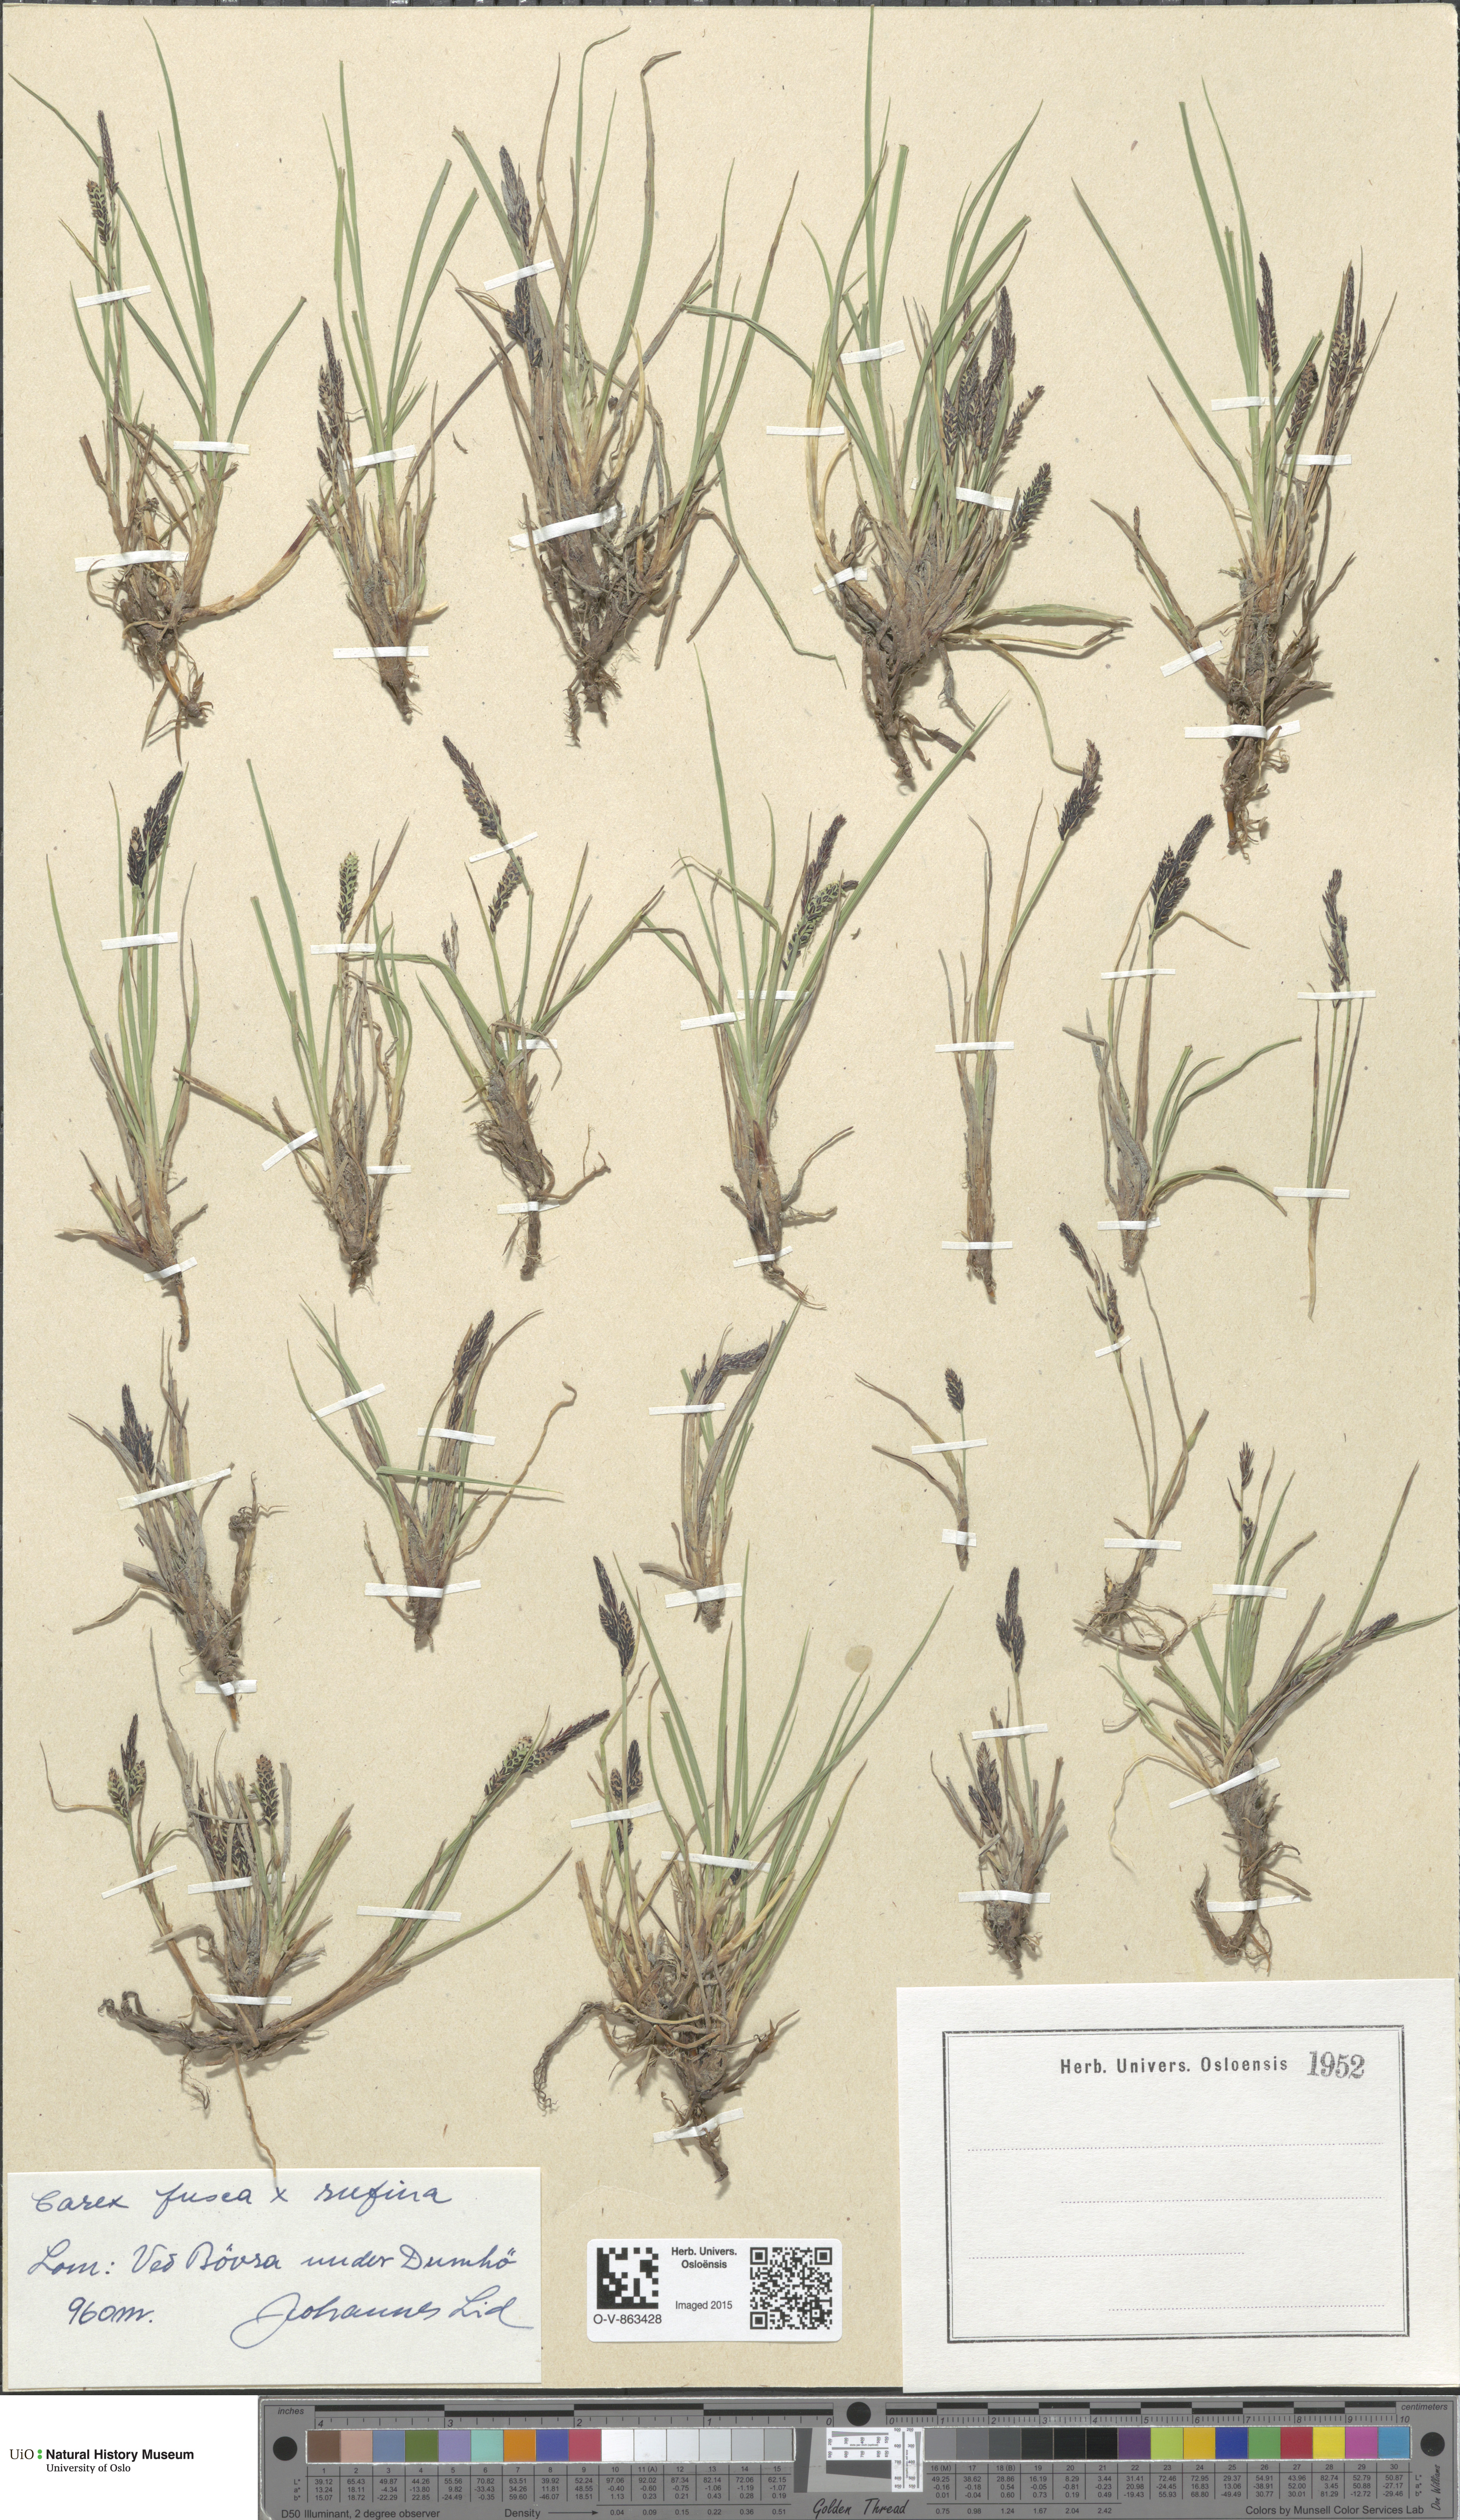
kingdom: Plantae
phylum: Tracheophyta
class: Liliopsida
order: Poales
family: Cyperaceae
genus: Carex
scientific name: Carex
